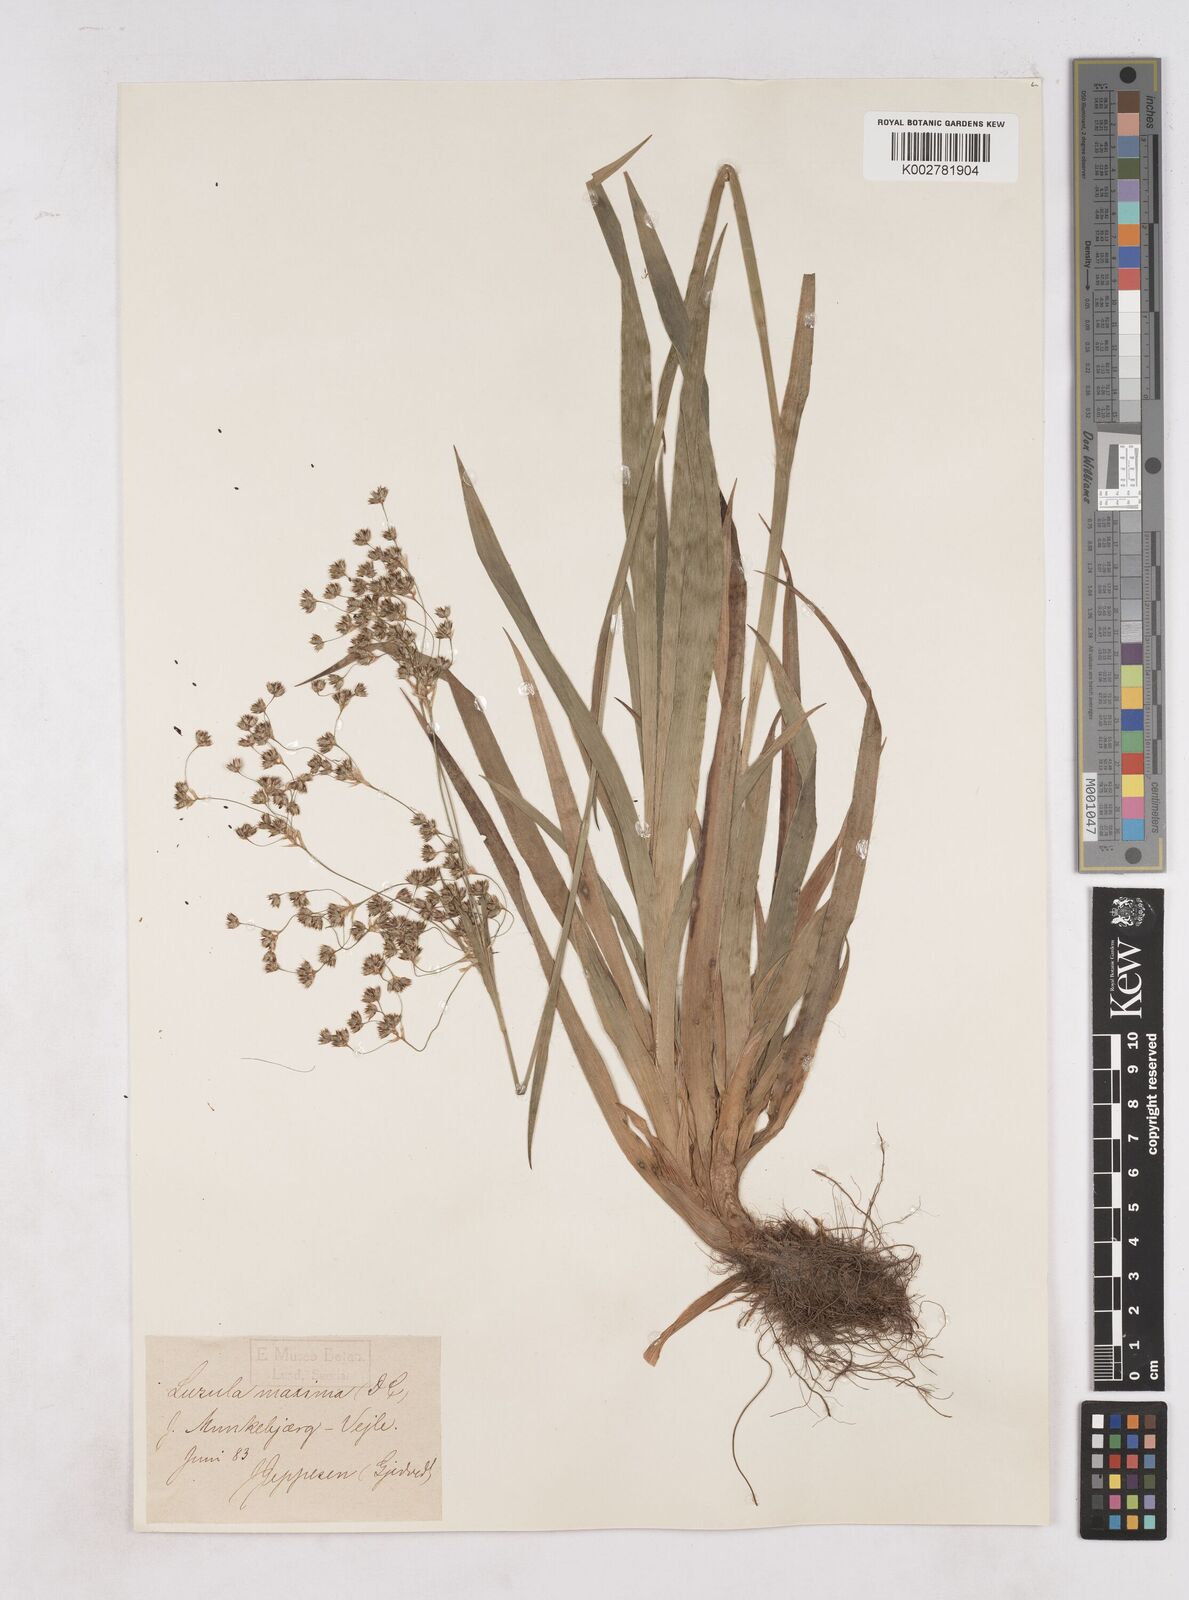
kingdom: Plantae
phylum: Tracheophyta
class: Liliopsida
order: Poales
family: Juncaceae
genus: Luzula
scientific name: Luzula sylvatica
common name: Great wood-rush
